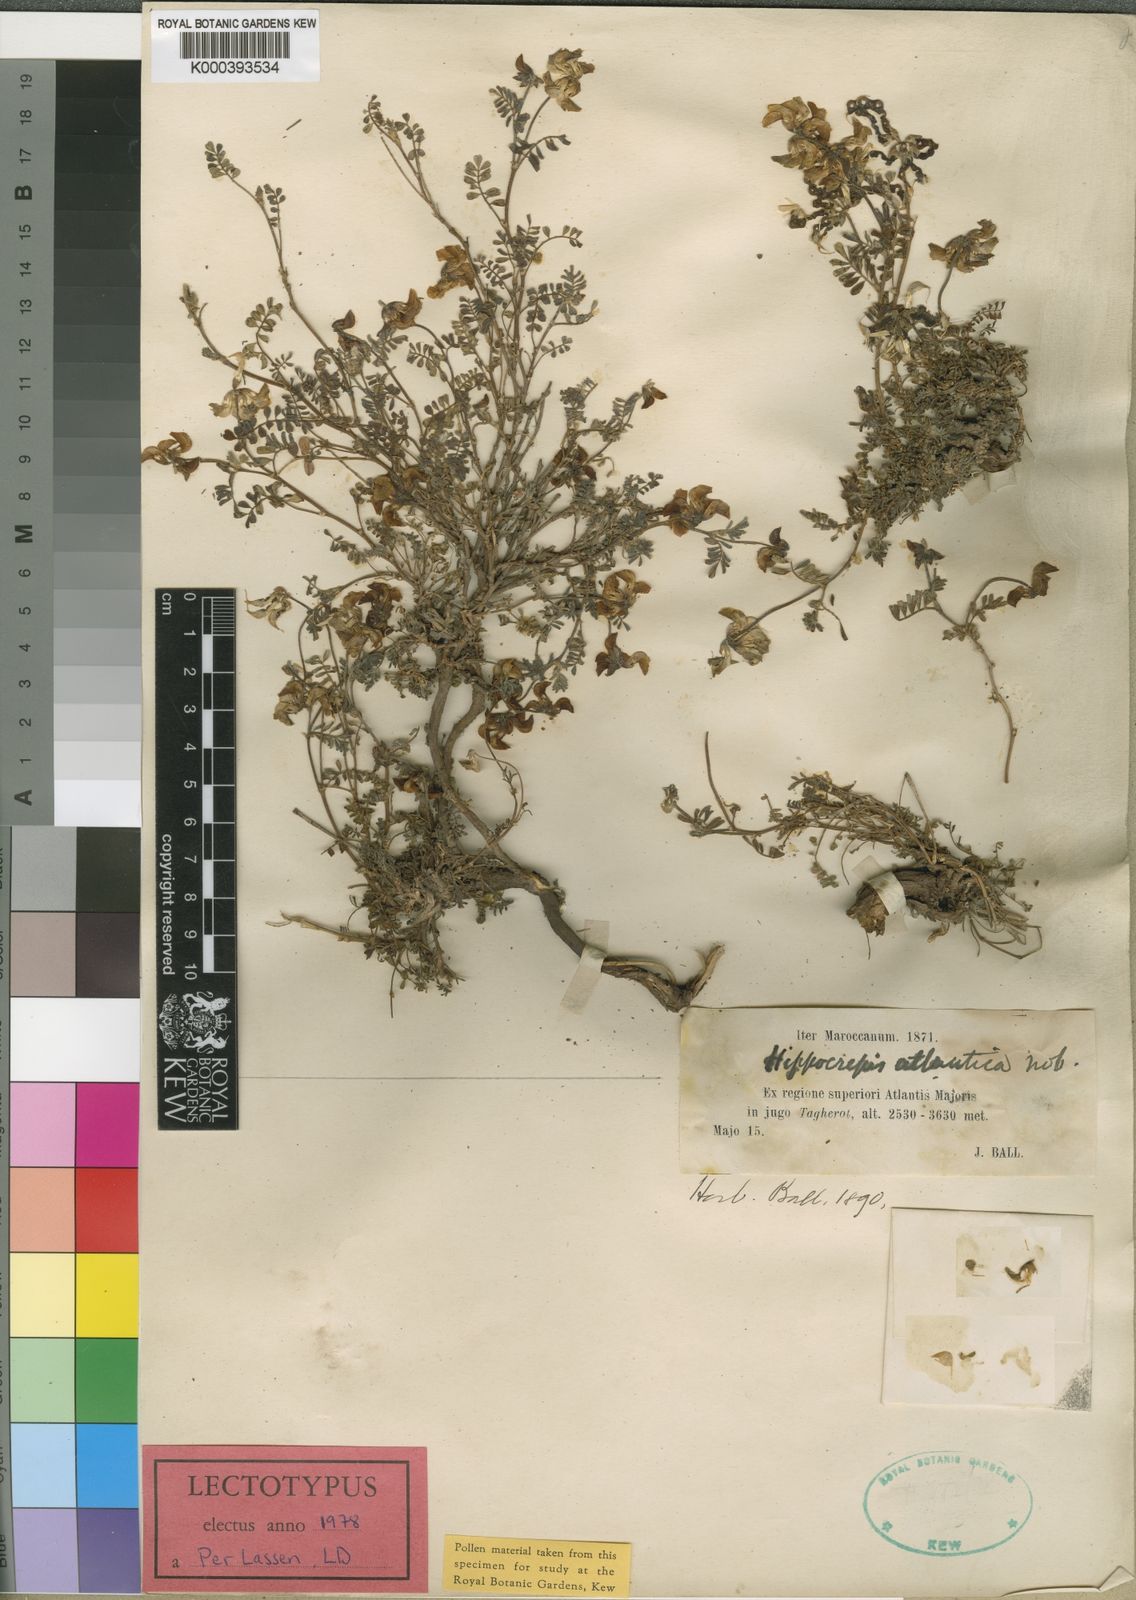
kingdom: Plantae
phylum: Tracheophyta
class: Magnoliopsida
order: Fabales
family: Fabaceae
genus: Hippocrepis
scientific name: Hippocrepis atlantica
